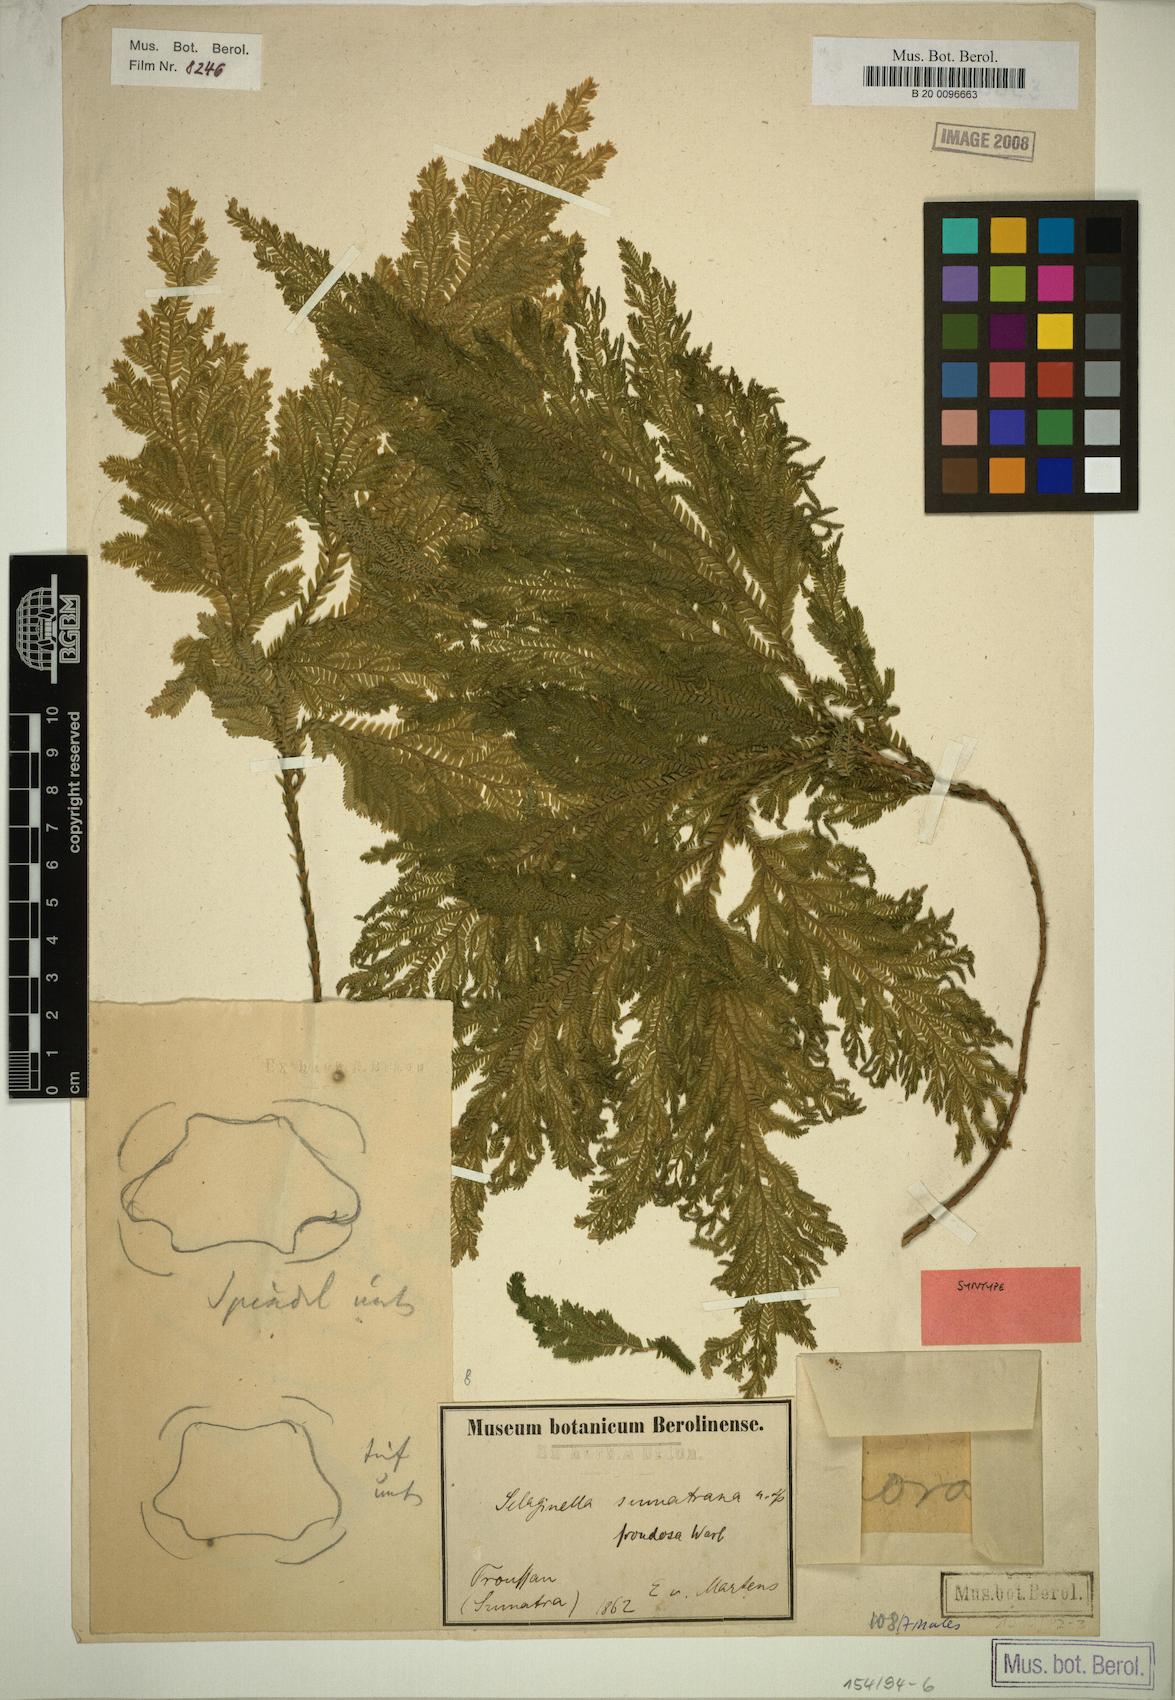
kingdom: Plantae
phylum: Tracheophyta
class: Lycopodiopsida
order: Selaginellales
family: Selaginellaceae
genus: Selaginella
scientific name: Selaginella frondosa
